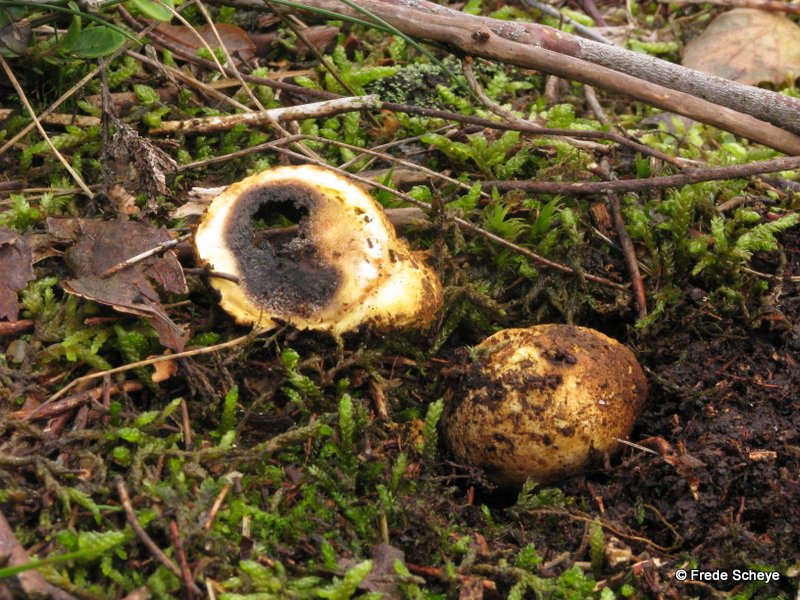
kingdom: Fungi
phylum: Basidiomycota
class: Agaricomycetes
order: Boletales
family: Sclerodermataceae
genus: Scleroderma
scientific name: Scleroderma citrinum
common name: almindelig bruskbold
